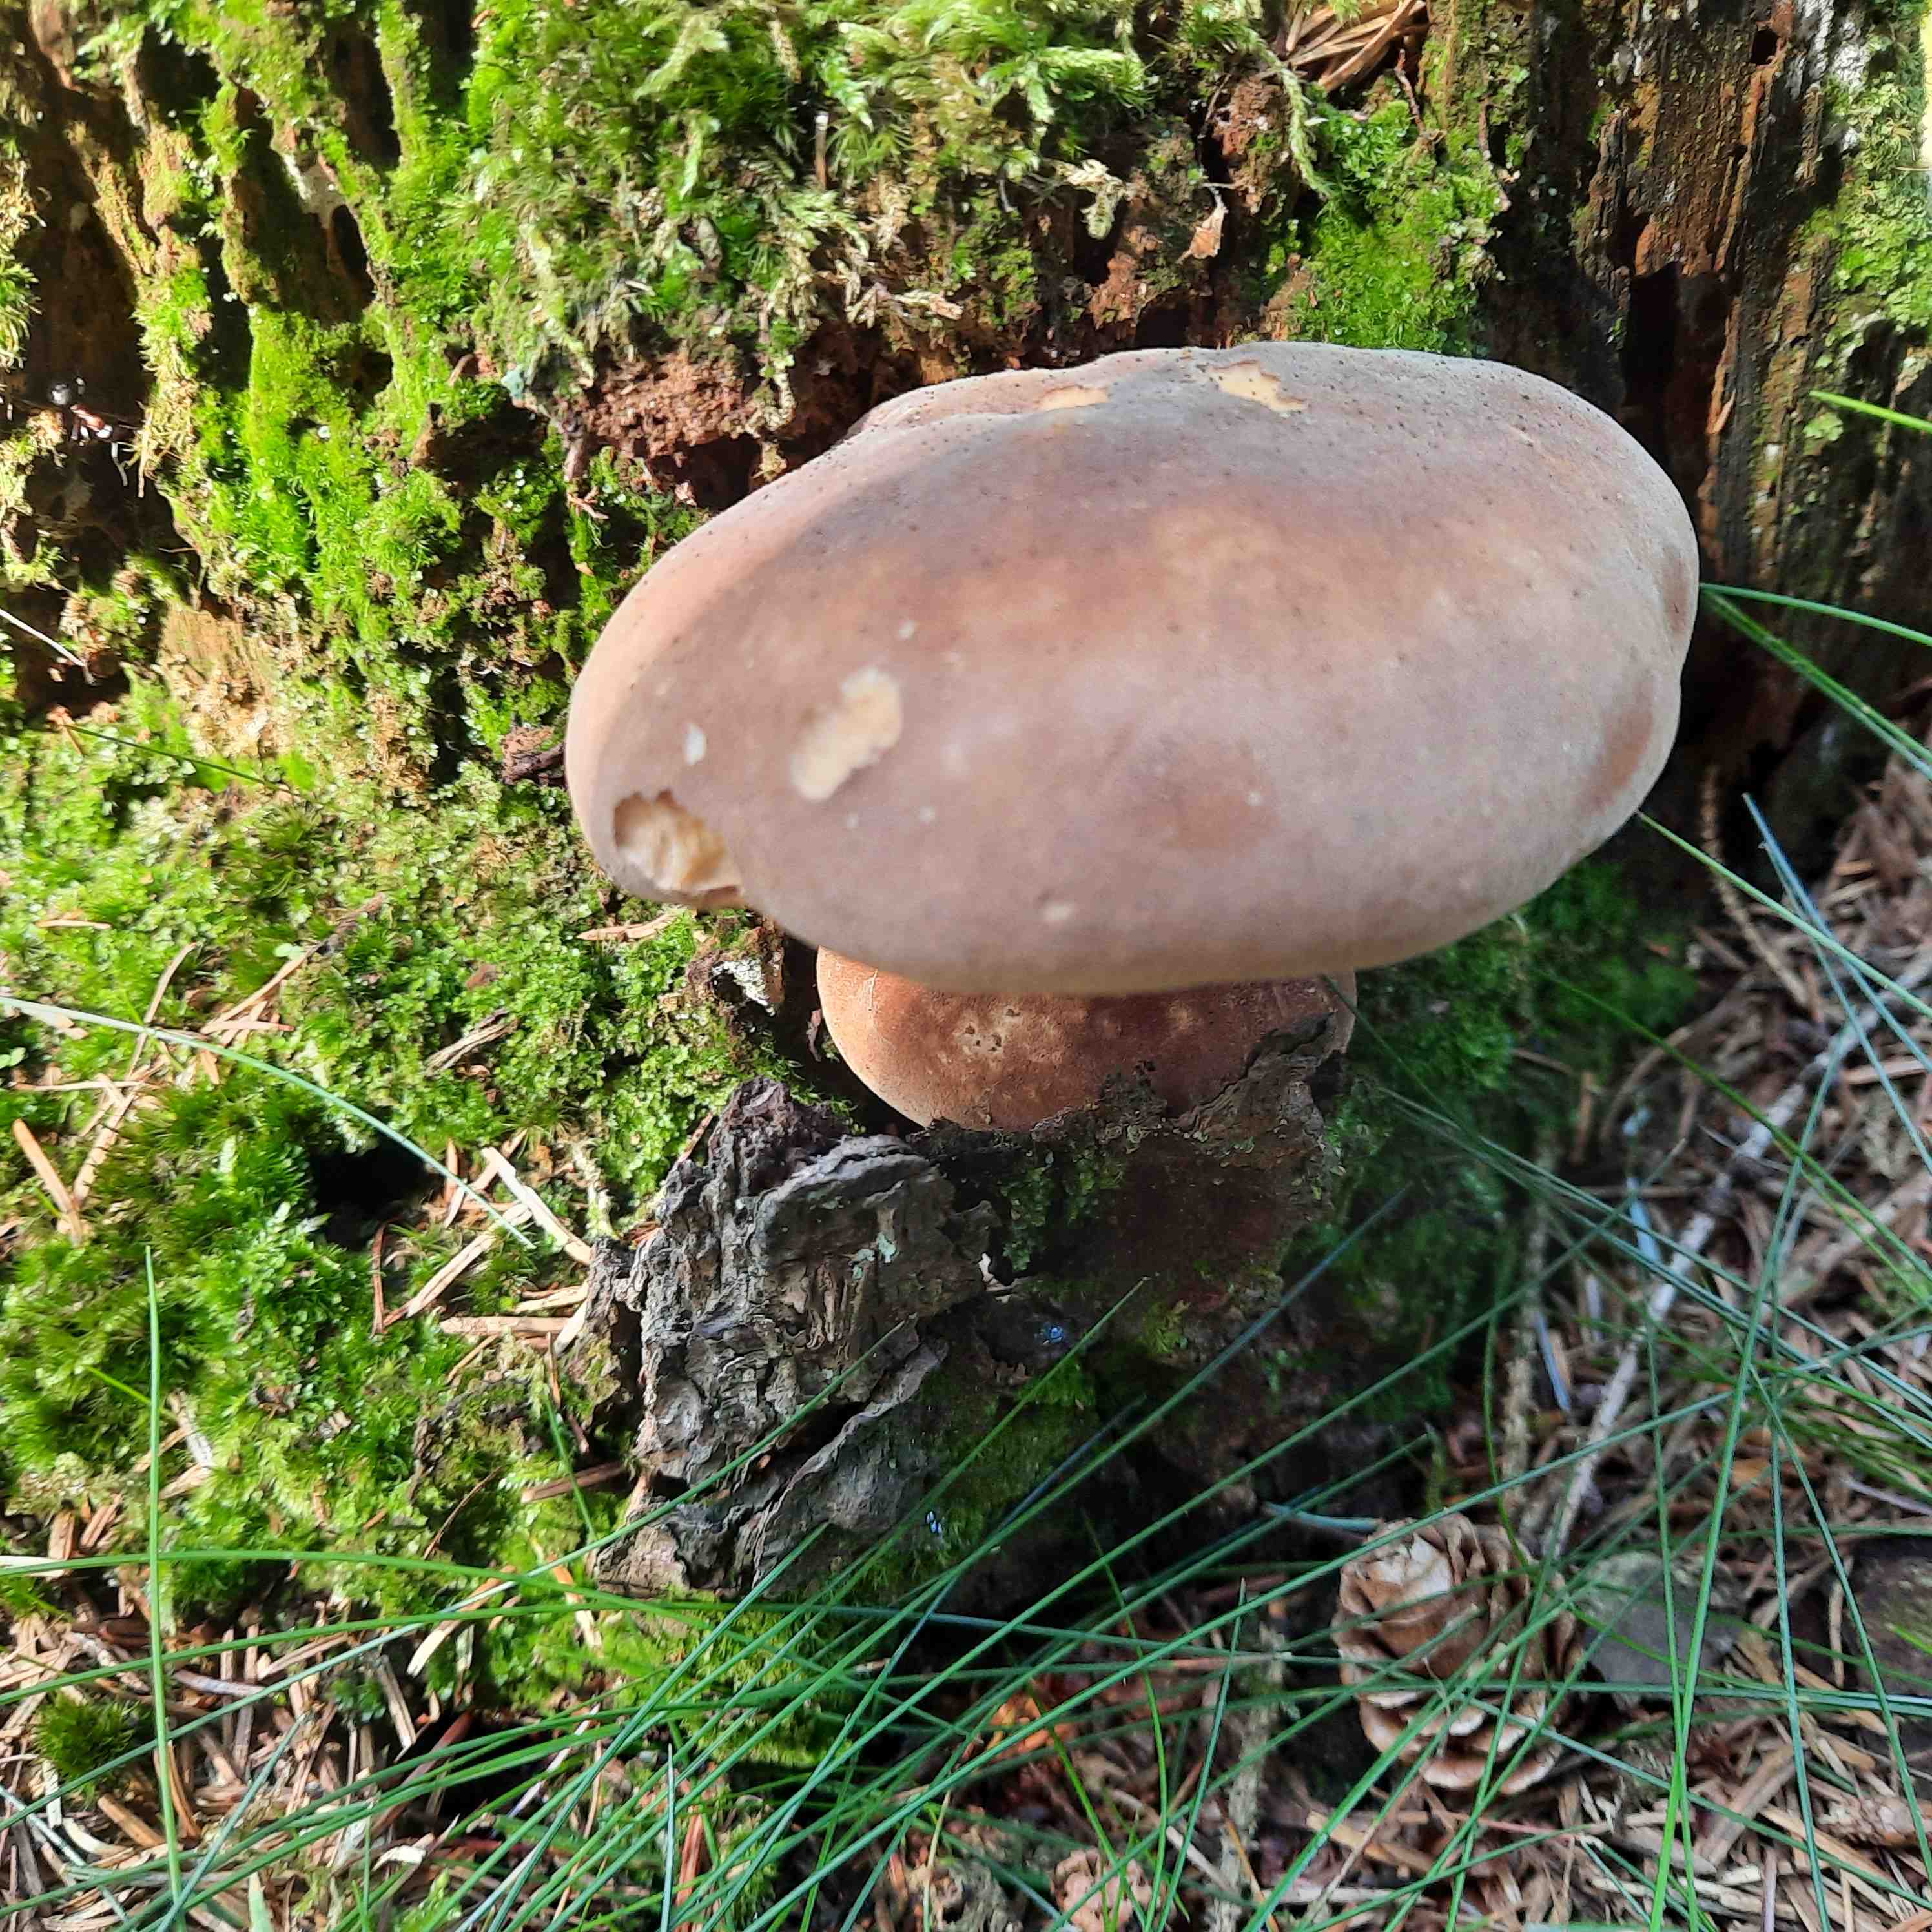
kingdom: Fungi
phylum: Basidiomycota
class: Agaricomycetes
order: Boletales
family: Tapinellaceae
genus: Tapinella
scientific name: Tapinella atrotomentosa
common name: sortfiltet viftesvamp
